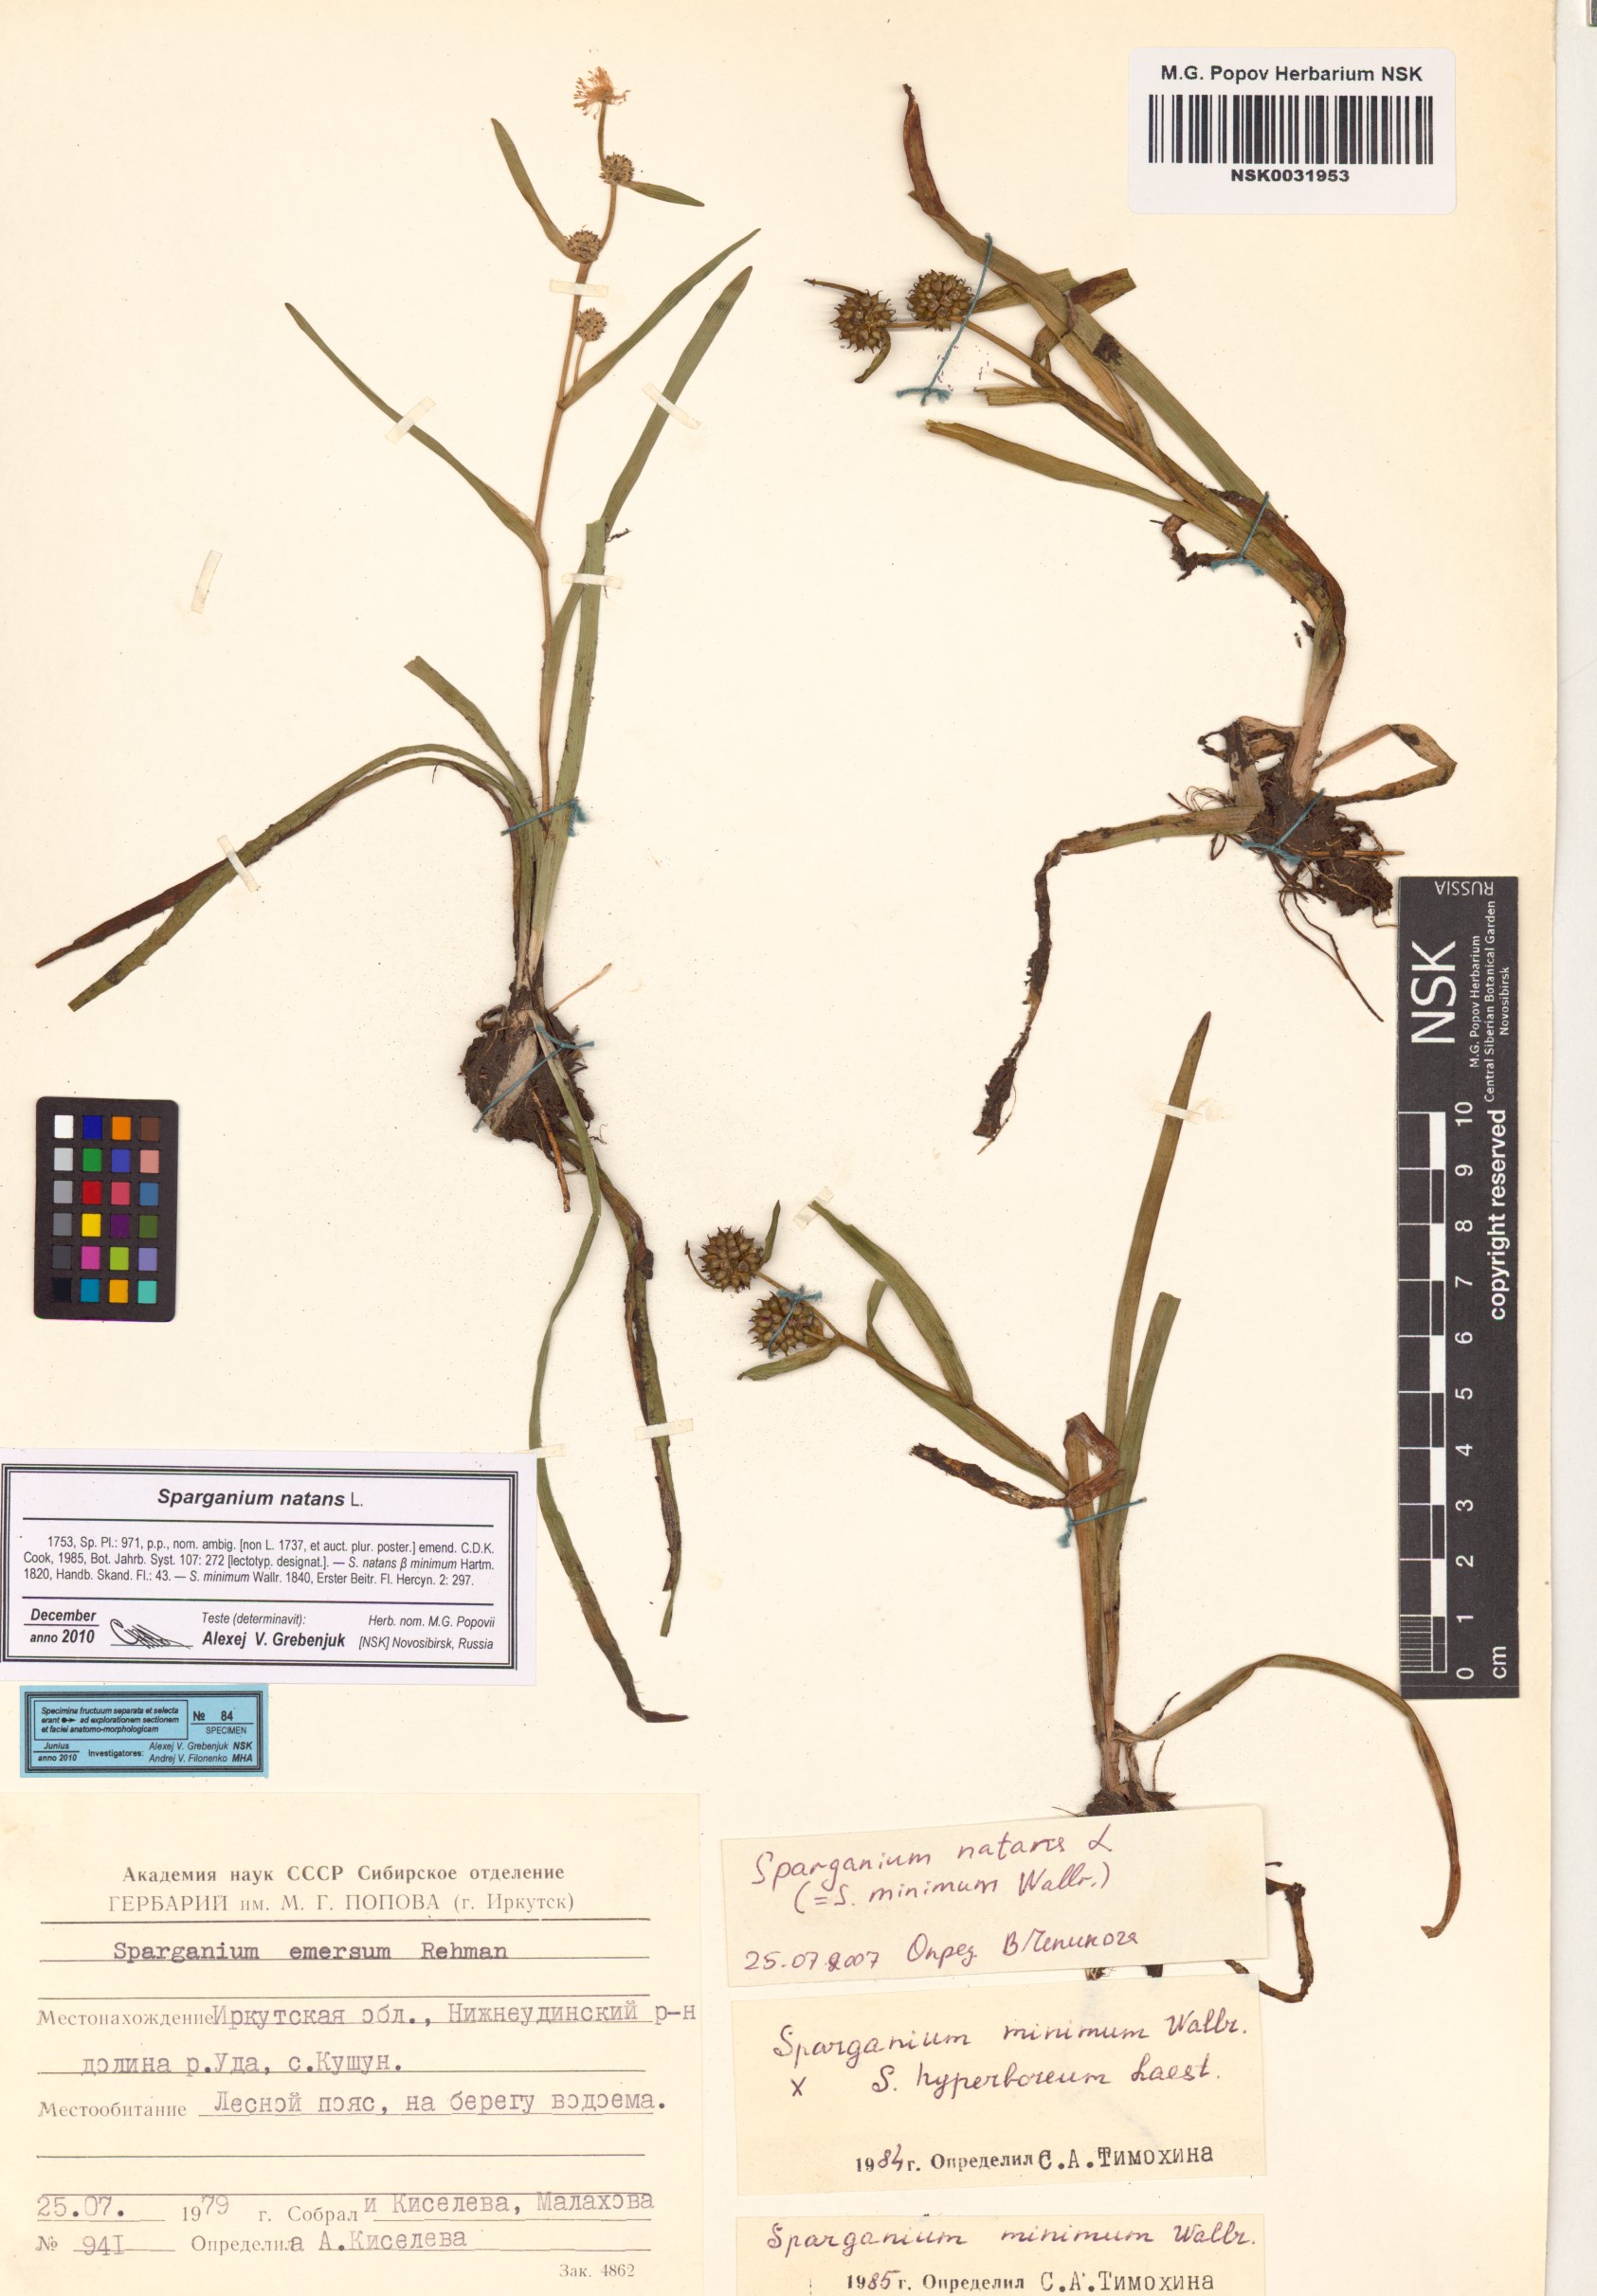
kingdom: Plantae
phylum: Tracheophyta
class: Liliopsida
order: Poales
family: Typhaceae
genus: Sparganium
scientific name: Sparganium natans
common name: Least bur-reed
